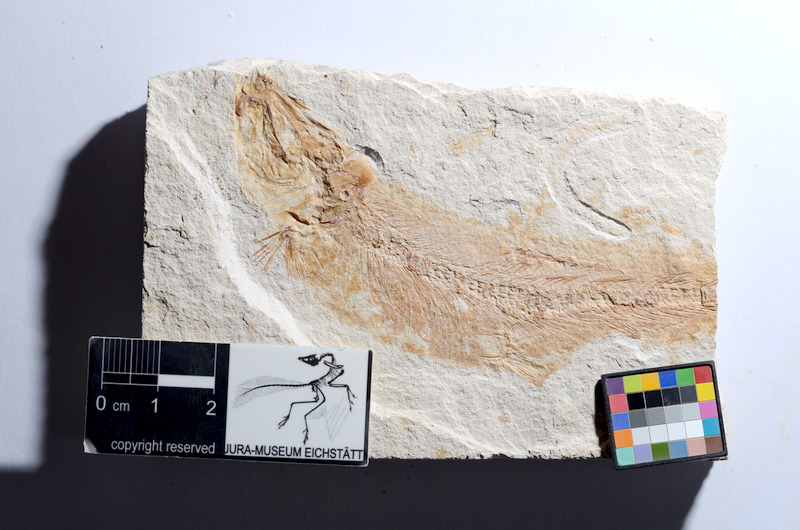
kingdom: Animalia
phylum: Chordata
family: Ascalaboidae
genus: Tharsis
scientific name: Tharsis dubius
